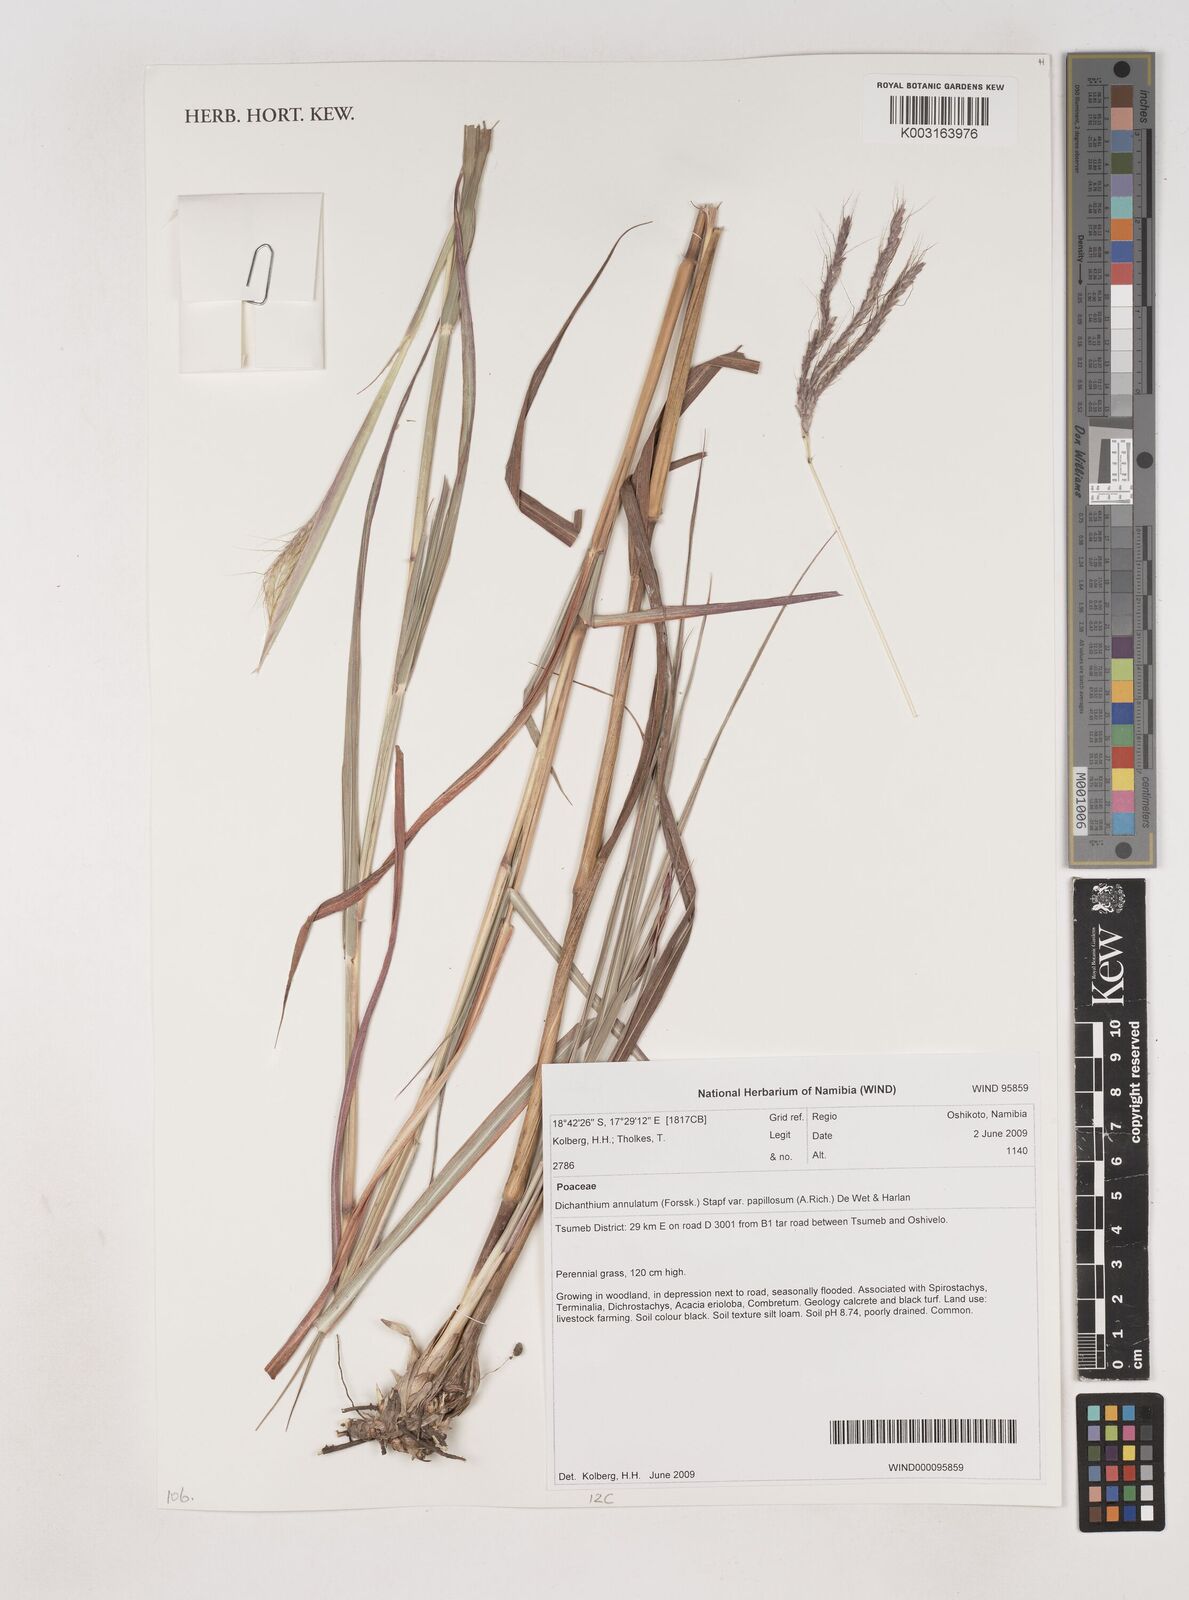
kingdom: Plantae
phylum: Tracheophyta
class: Liliopsida
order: Poales
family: Poaceae
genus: Dichanthium
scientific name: Dichanthium annulatum
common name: Kleberg's bluestem
